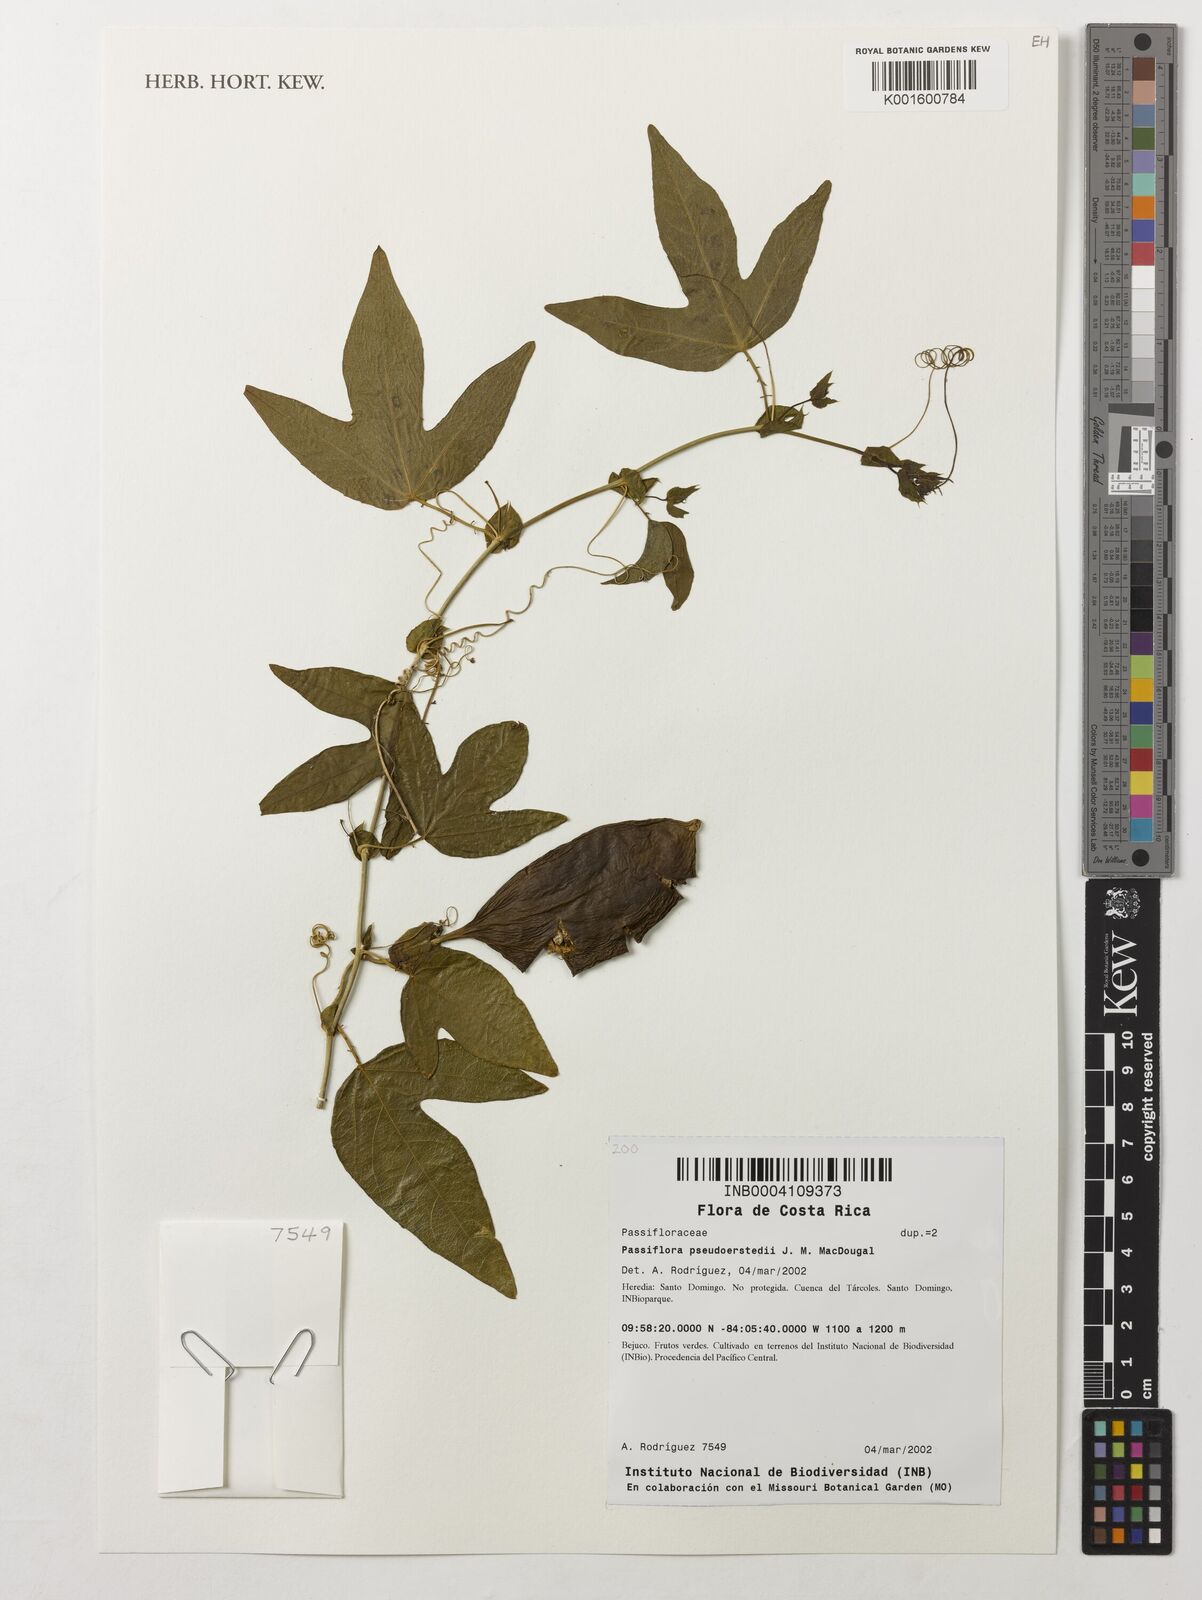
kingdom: Plantae
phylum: Tracheophyta
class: Magnoliopsida
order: Malpighiales
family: Passifloraceae
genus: Passiflora
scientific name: Passiflora
